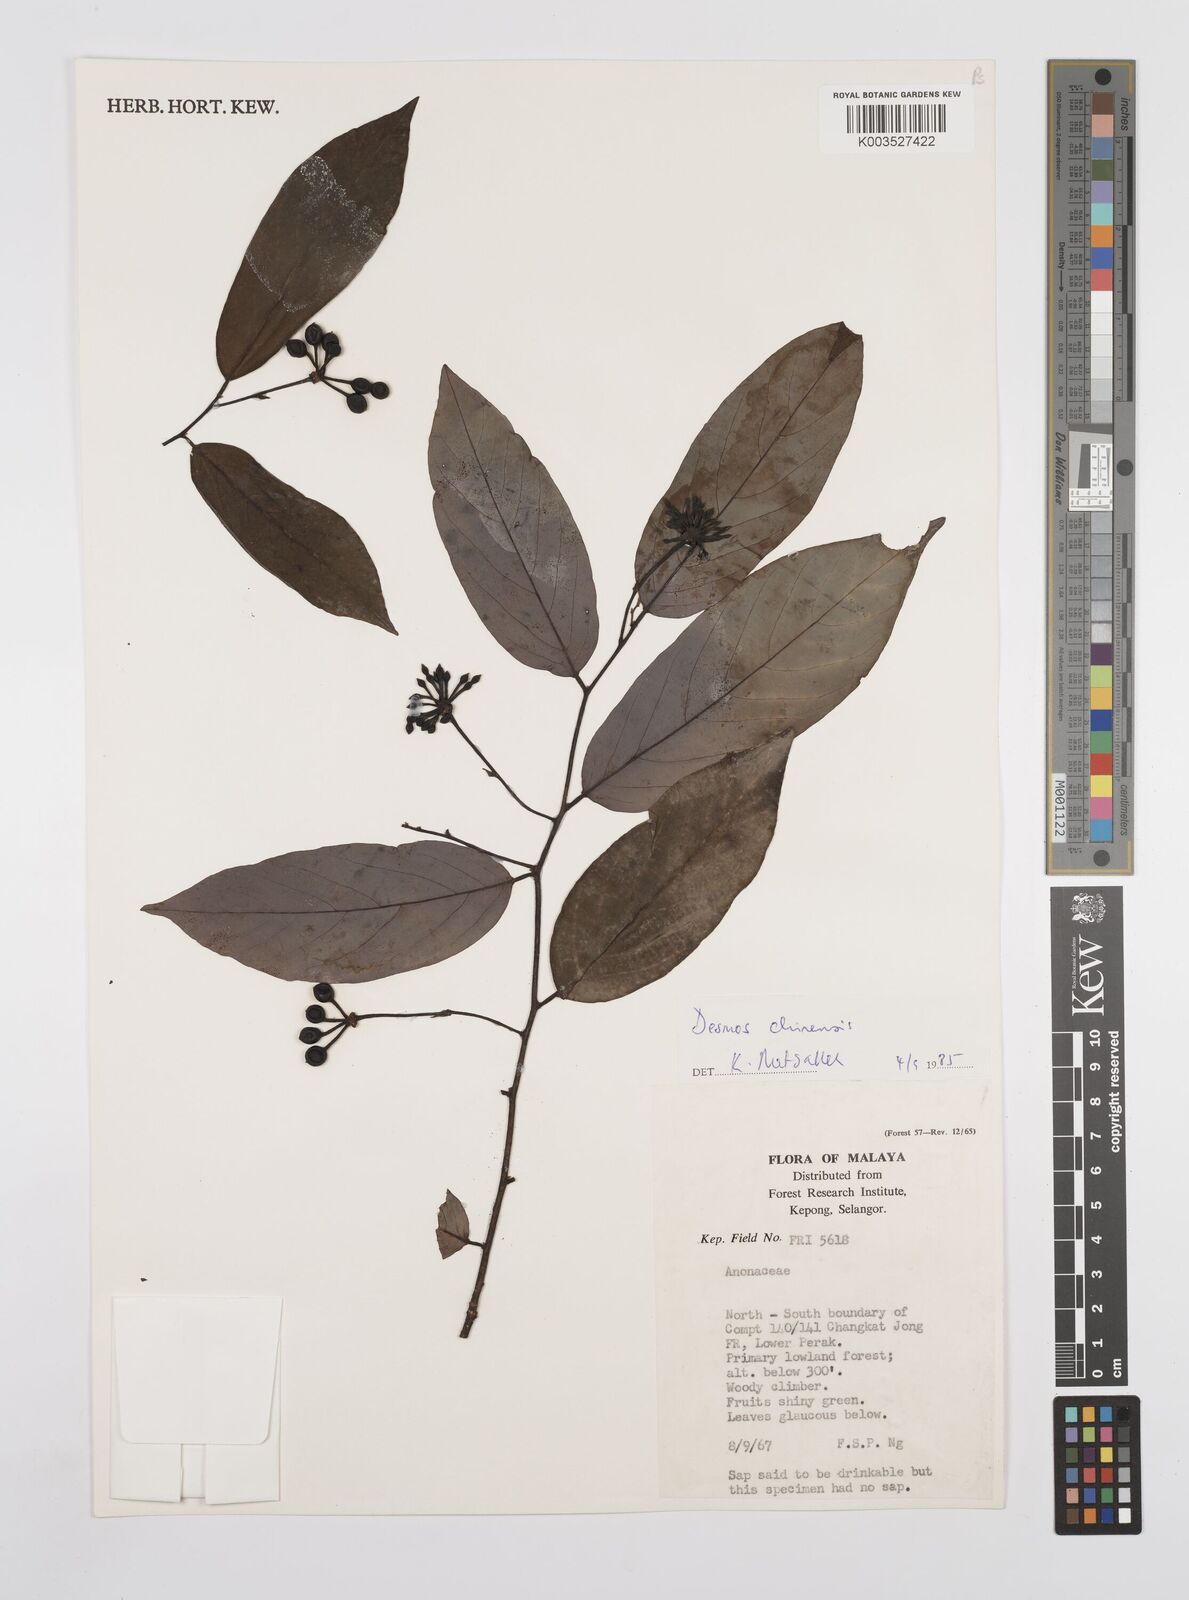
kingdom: Plantae
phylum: Tracheophyta
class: Magnoliopsida
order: Magnoliales
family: Annonaceae
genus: Desmos
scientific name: Desmos chinensis
